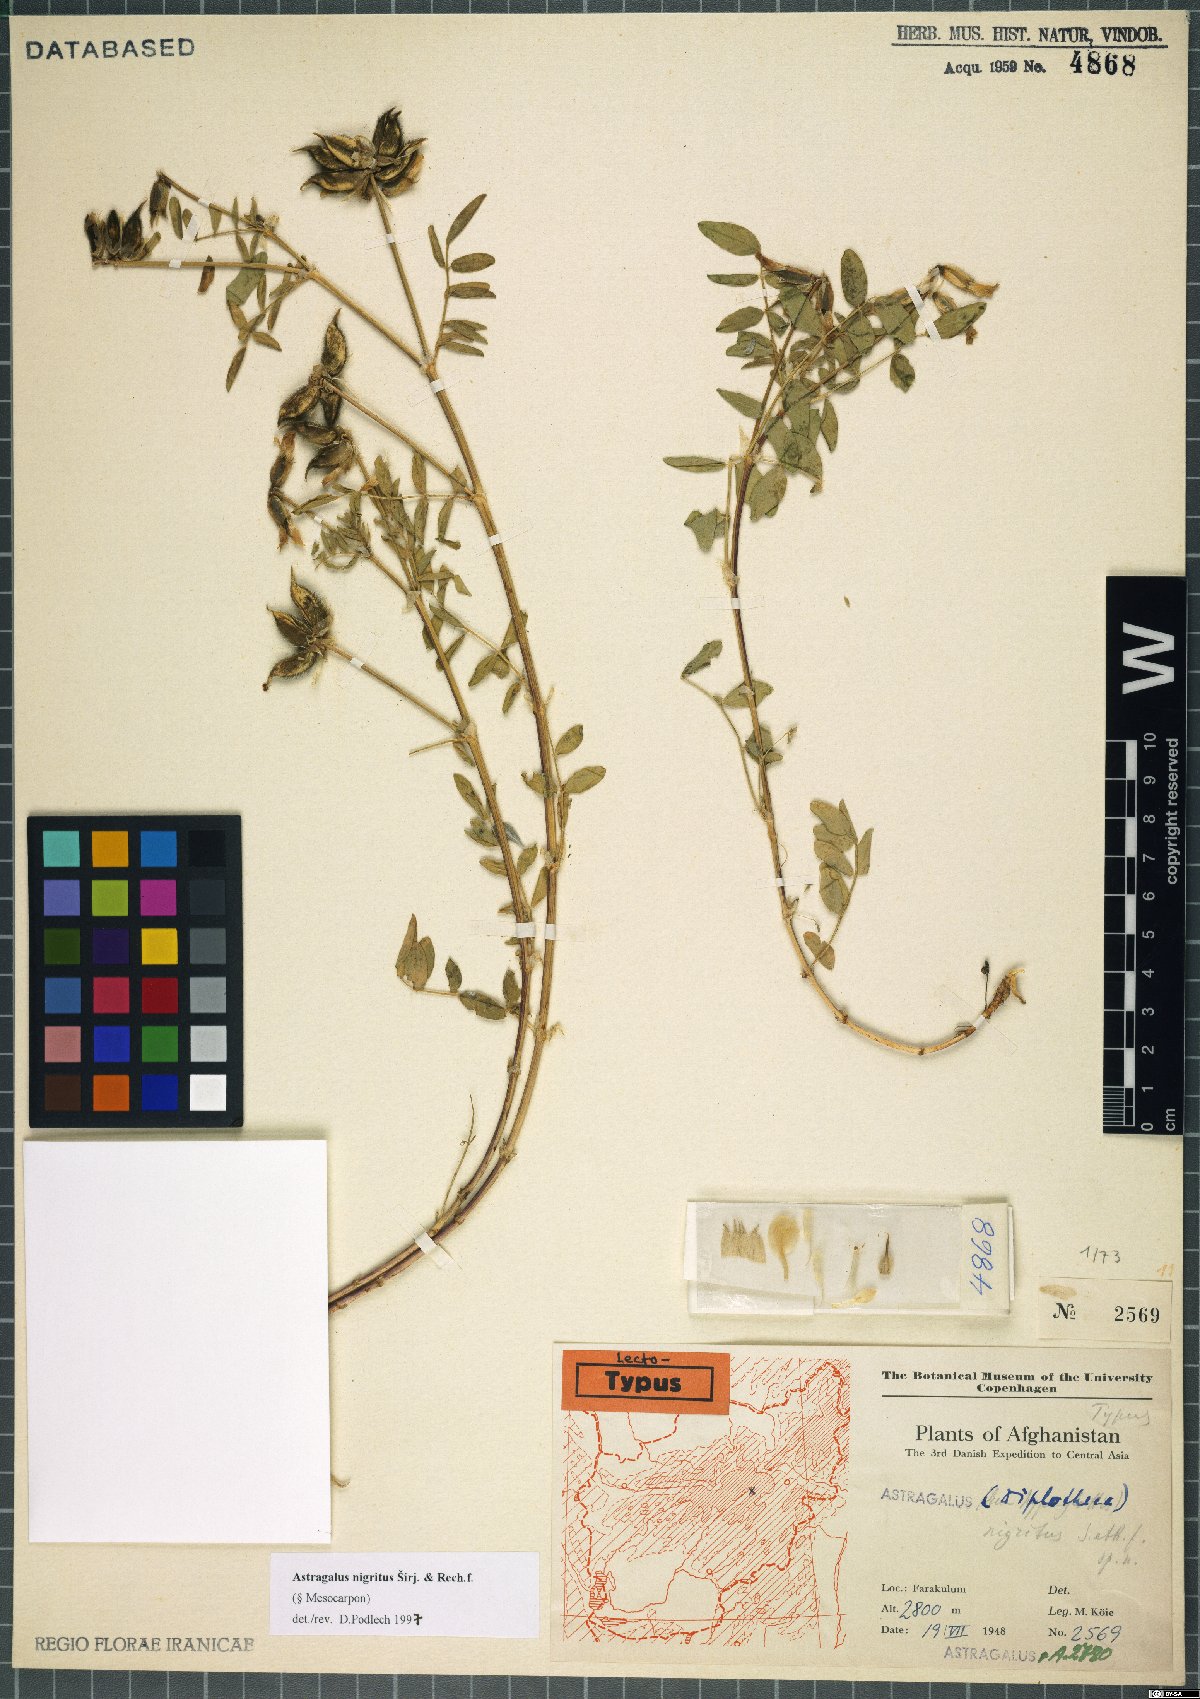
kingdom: Plantae
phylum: Tracheophyta
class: Magnoliopsida
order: Fabales
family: Fabaceae
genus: Astragalus
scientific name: Astragalus nigritus
